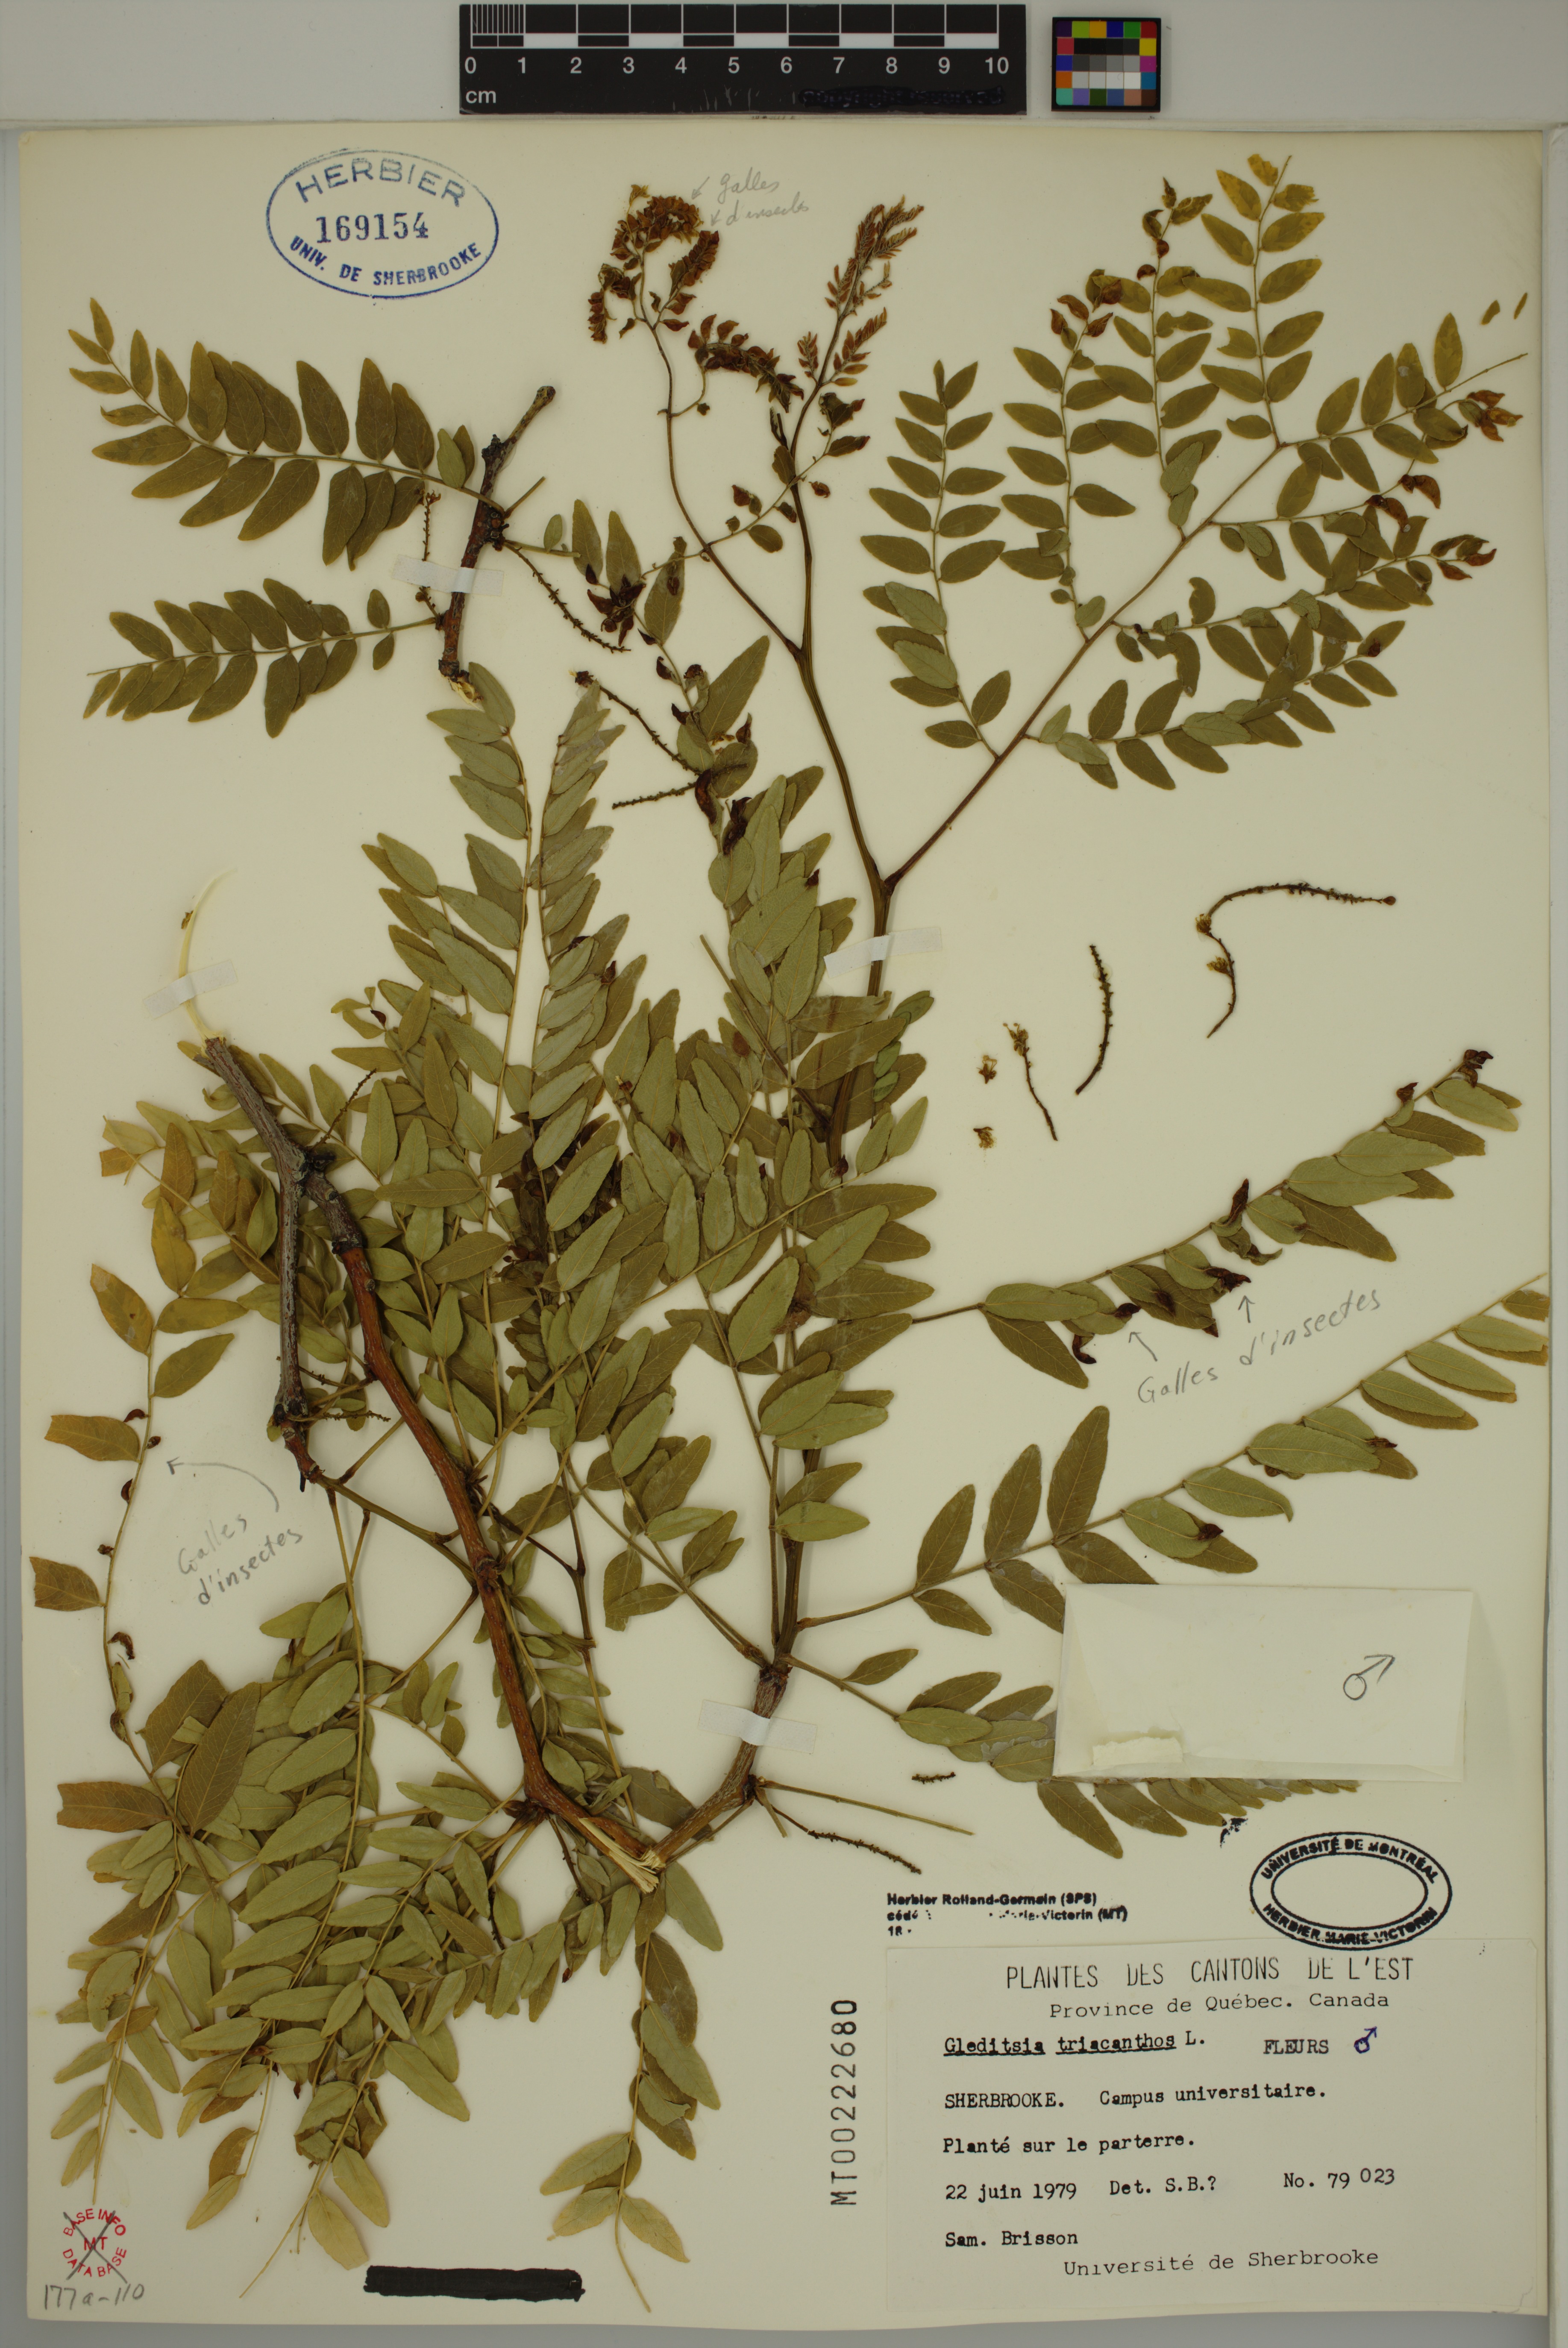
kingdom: Plantae
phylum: Tracheophyta
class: Magnoliopsida
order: Fabales
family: Fabaceae
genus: Gleditsia
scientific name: Gleditsia triacanthos
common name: Common honeylocust
